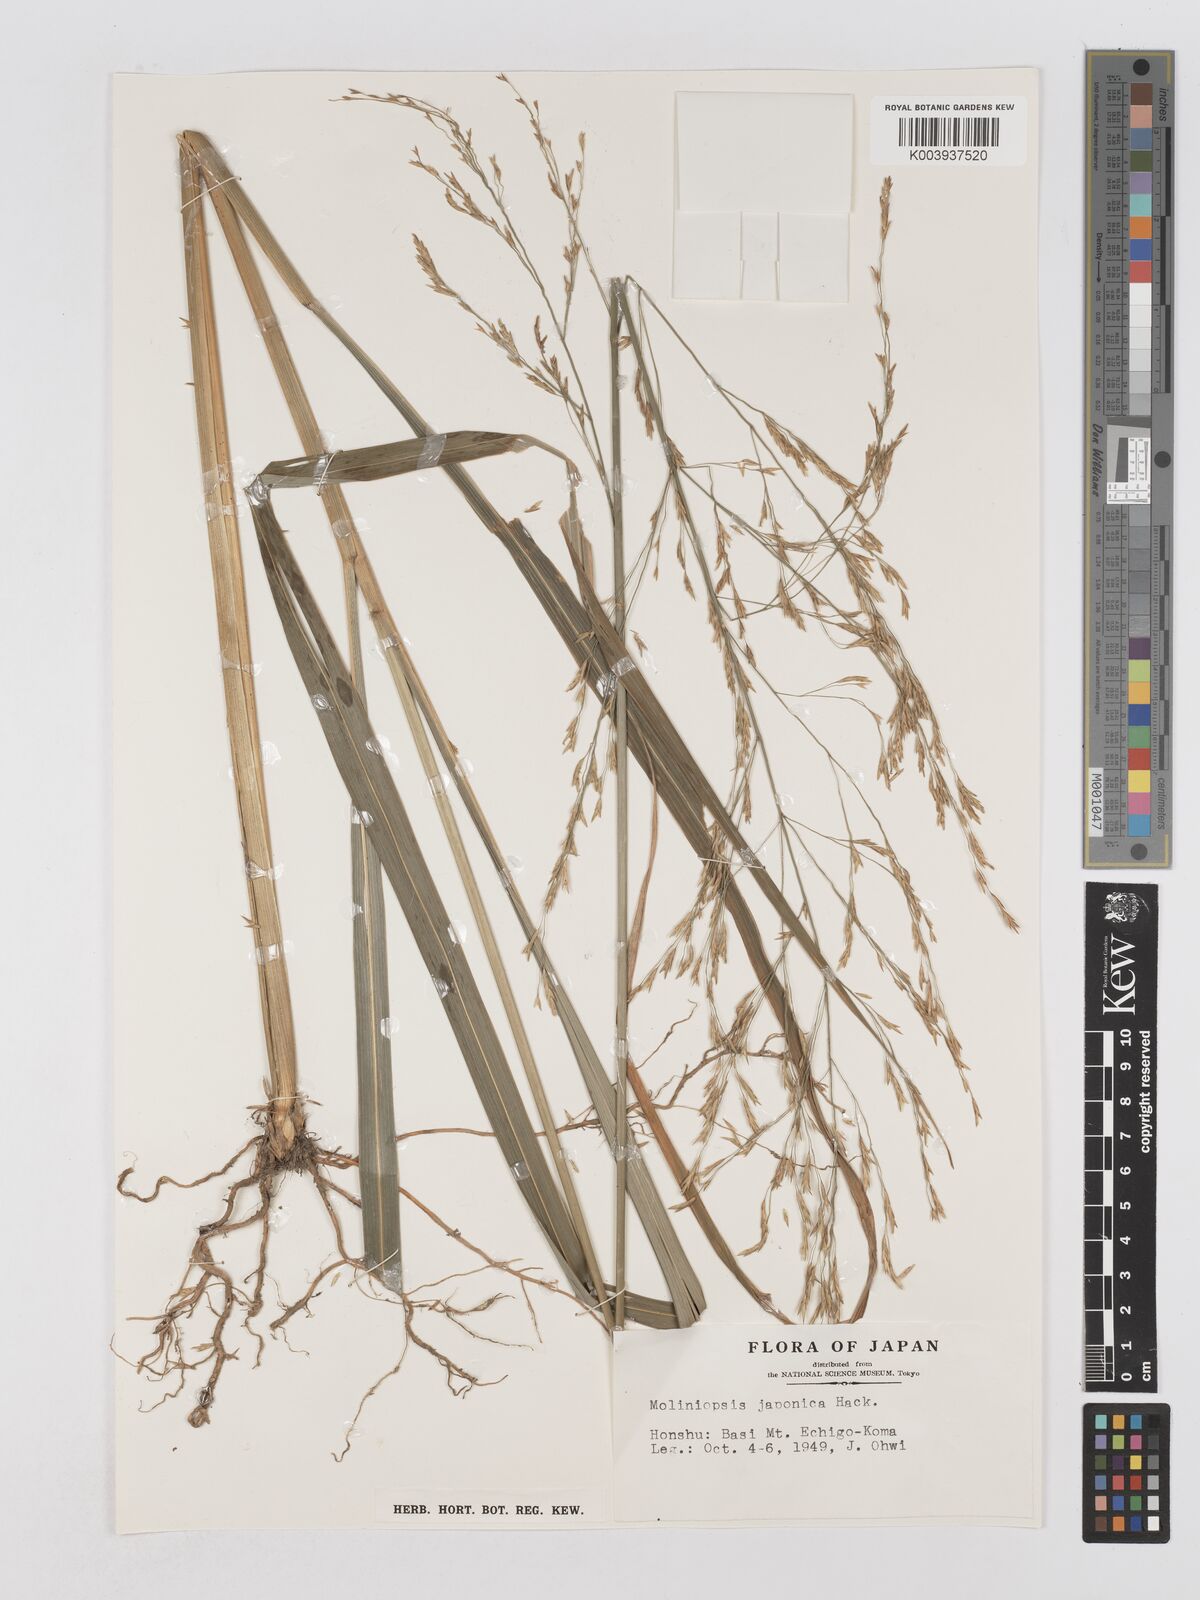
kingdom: Plantae
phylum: Tracheophyta
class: Liliopsida
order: Poales
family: Poaceae
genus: Moliniopsis
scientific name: Moliniopsis japonica
